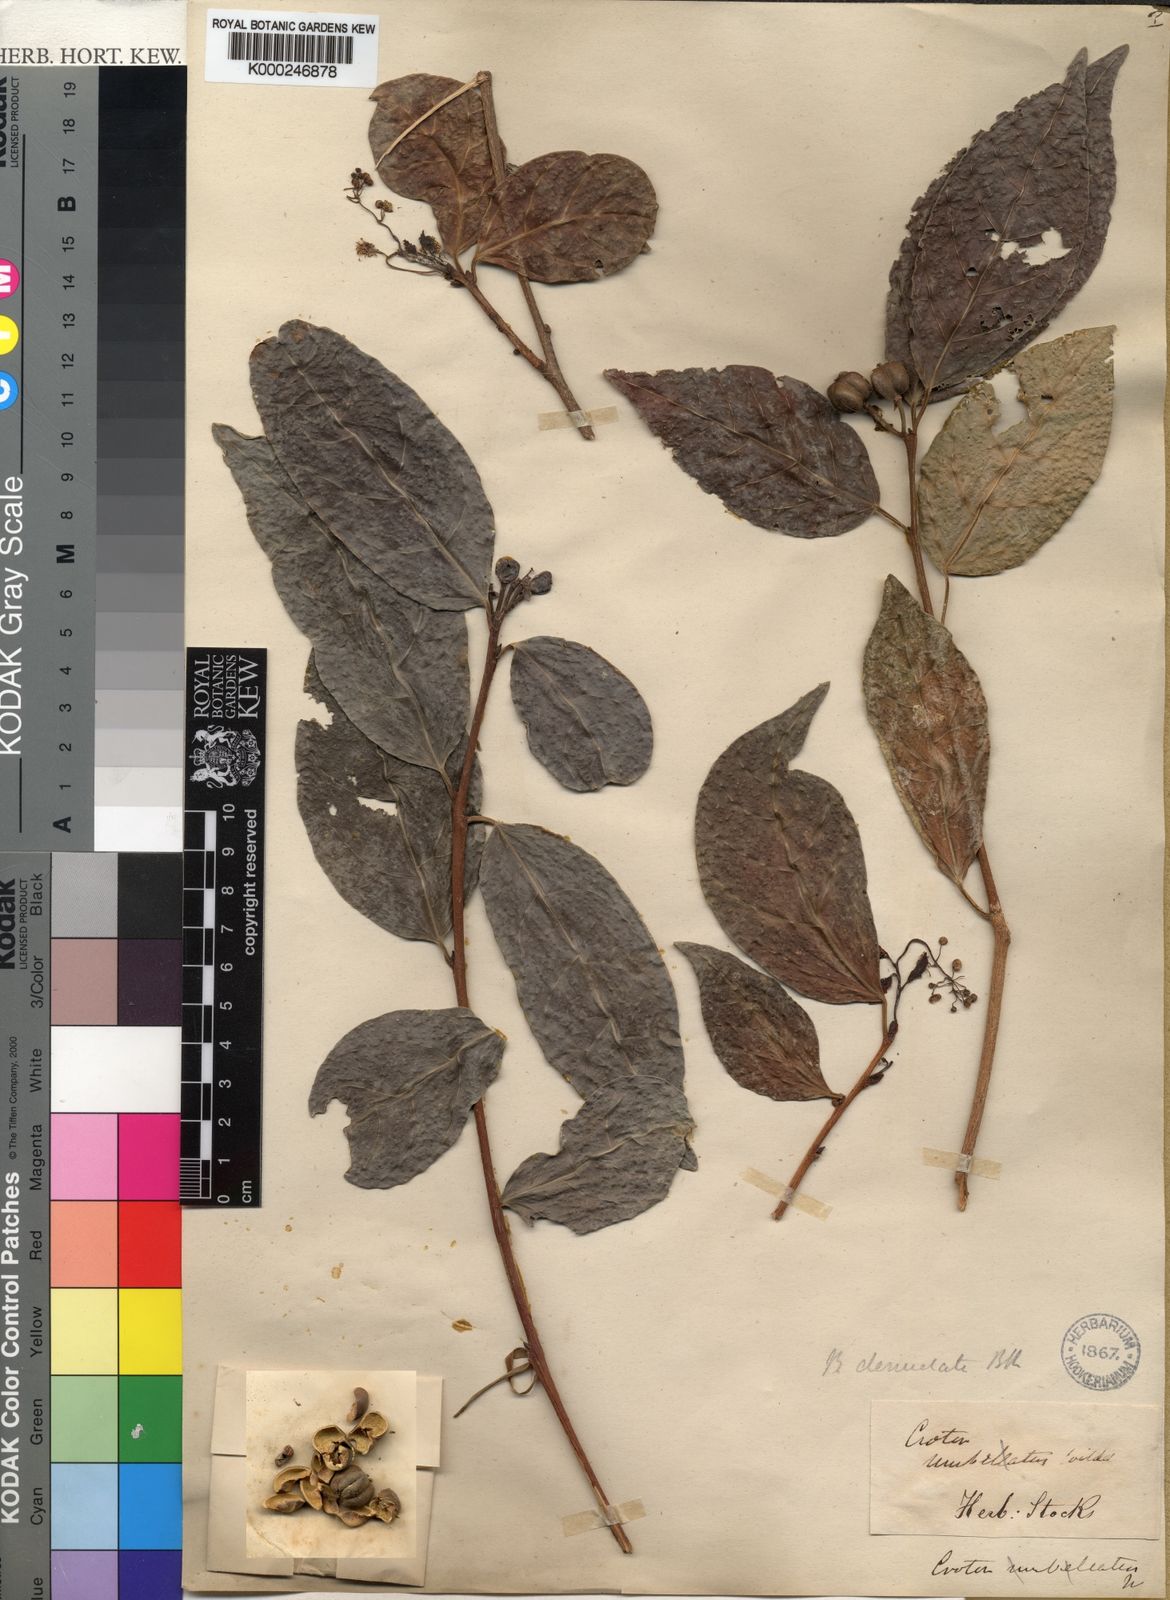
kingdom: Plantae
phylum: Tracheophyta
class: Magnoliopsida
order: Malpighiales
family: Euphorbiaceae
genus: Blachia
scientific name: Blachia denudata
